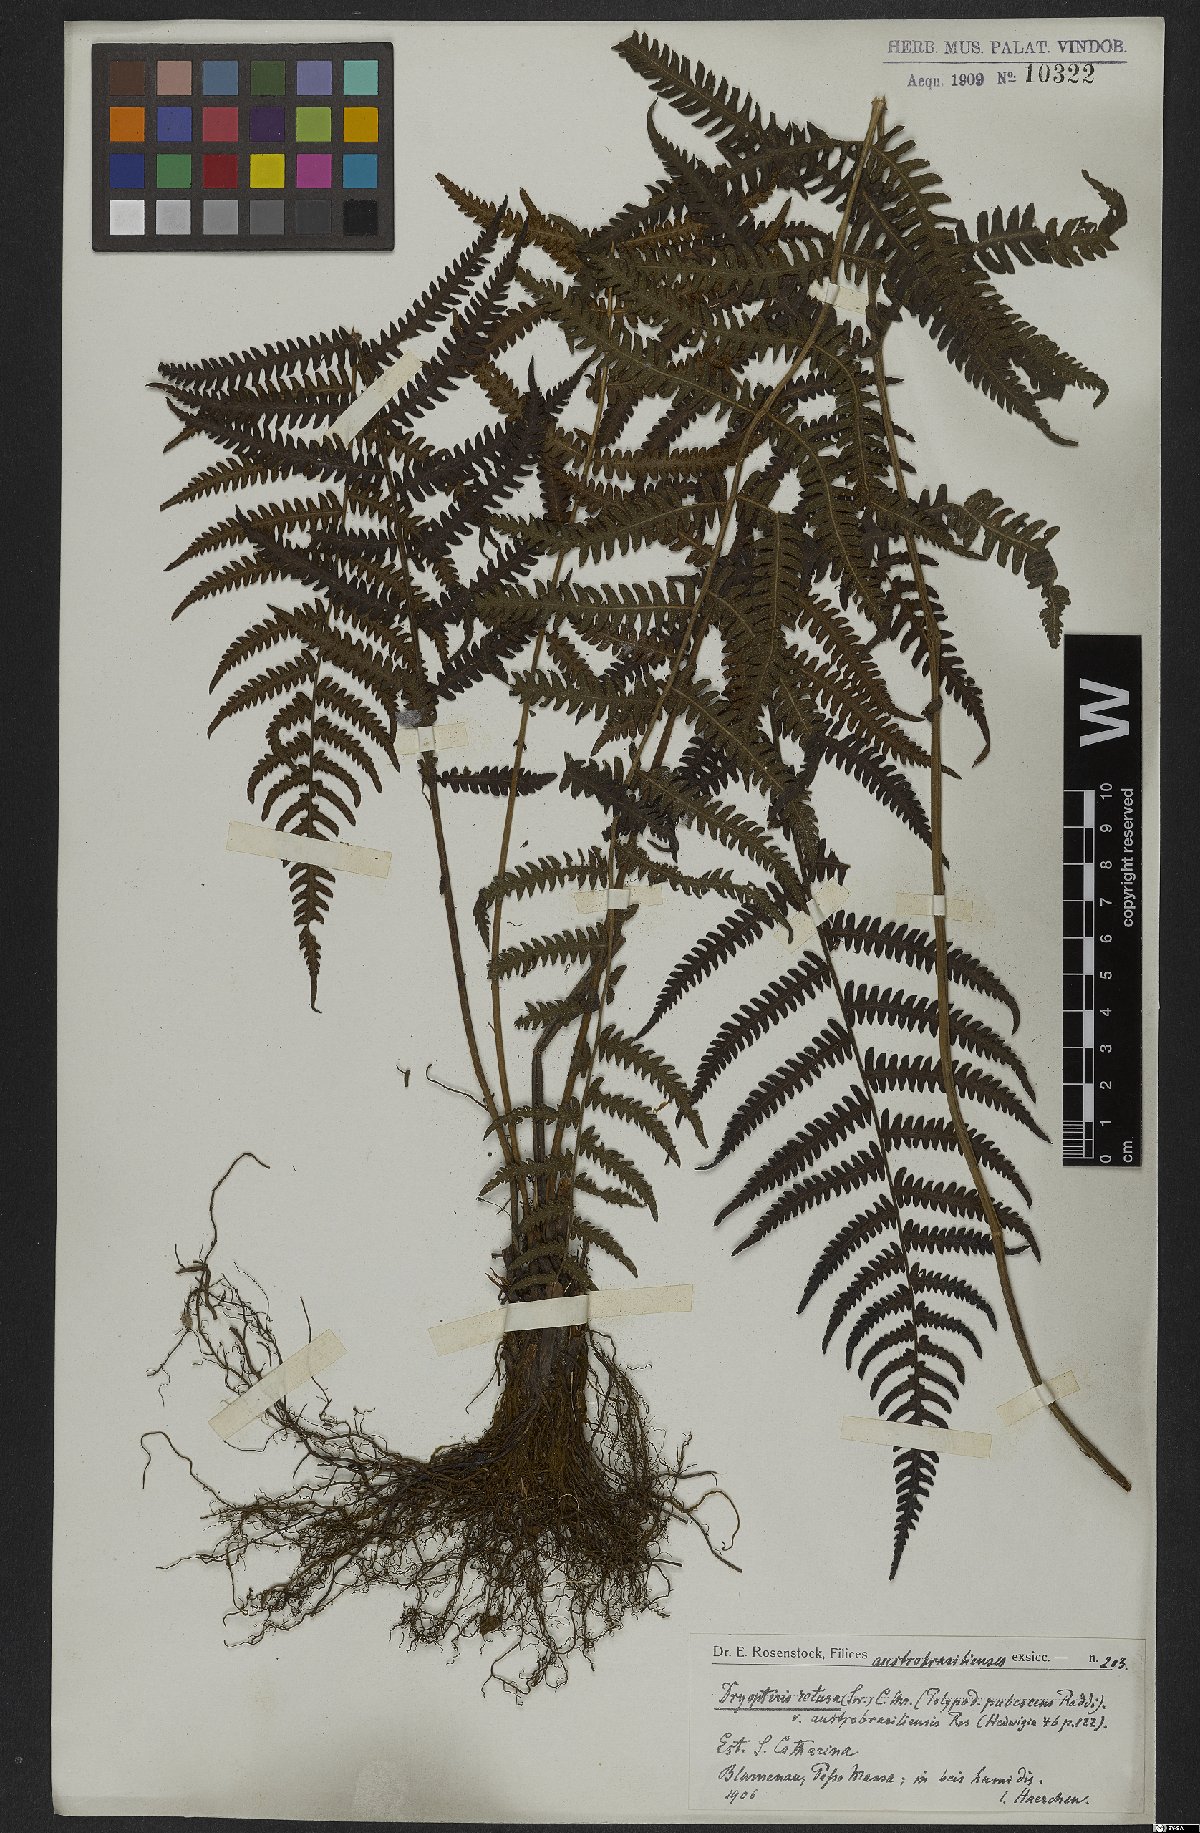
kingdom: Plantae
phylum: Tracheophyta
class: Polypodiopsida
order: Polypodiales
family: Thelypteridaceae
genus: Amauropelta
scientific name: Amauropelta retusa
